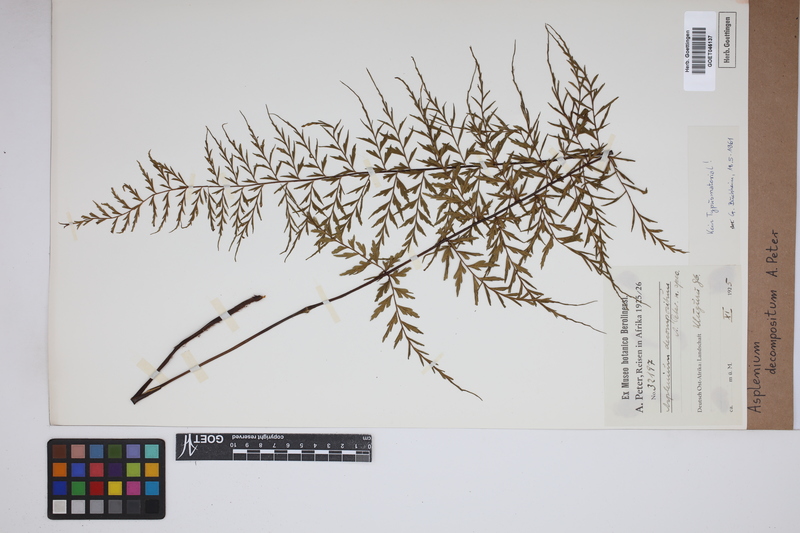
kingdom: Plantae
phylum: Tracheophyta
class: Polypodiopsida
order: Polypodiales
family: Aspleniaceae
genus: Asplenium
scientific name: Asplenium linckii
